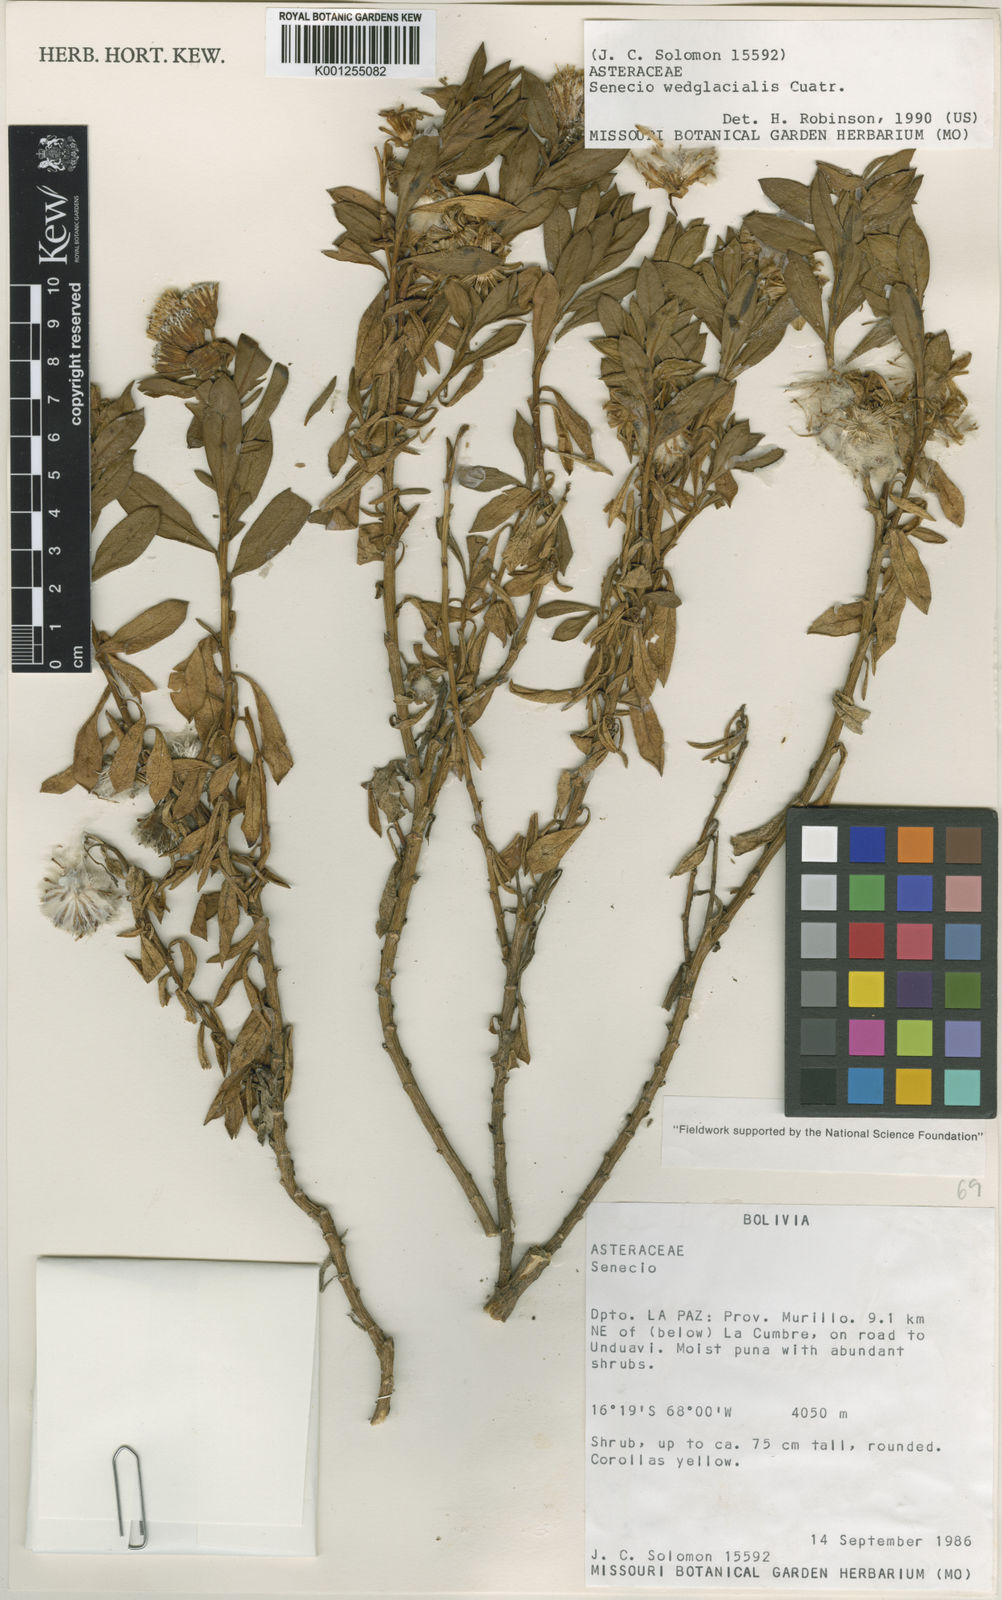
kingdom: Plantae
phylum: Tracheophyta
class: Magnoliopsida
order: Asterales
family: Asteraceae
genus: Senecio
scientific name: Senecio wedglacialis
